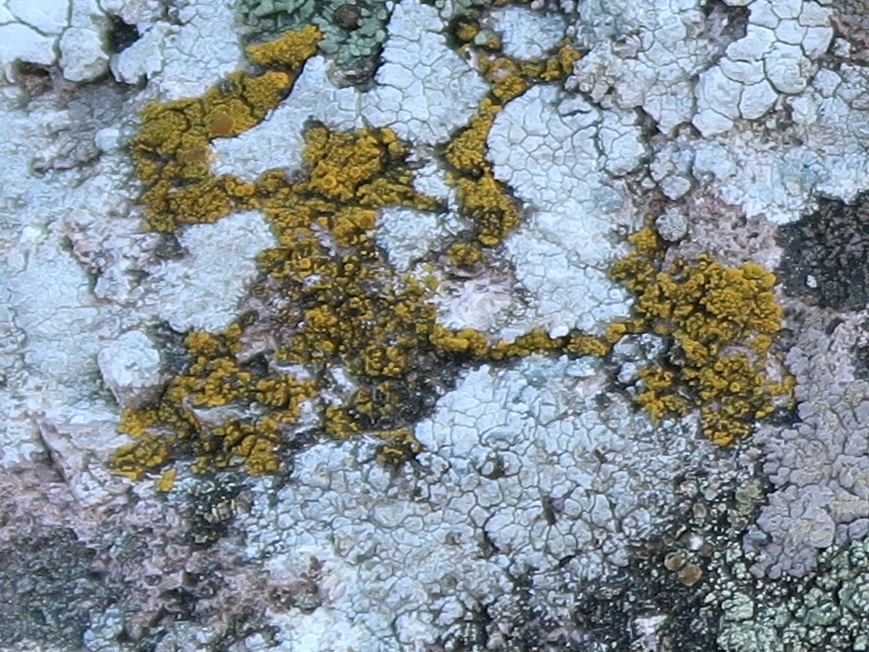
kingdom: Fungi
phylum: Ascomycota
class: Candelariomycetes
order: Candelariales
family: Candelariaceae
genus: Candelariella
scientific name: Candelariella vitellina
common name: almindelig æggeblommelav
